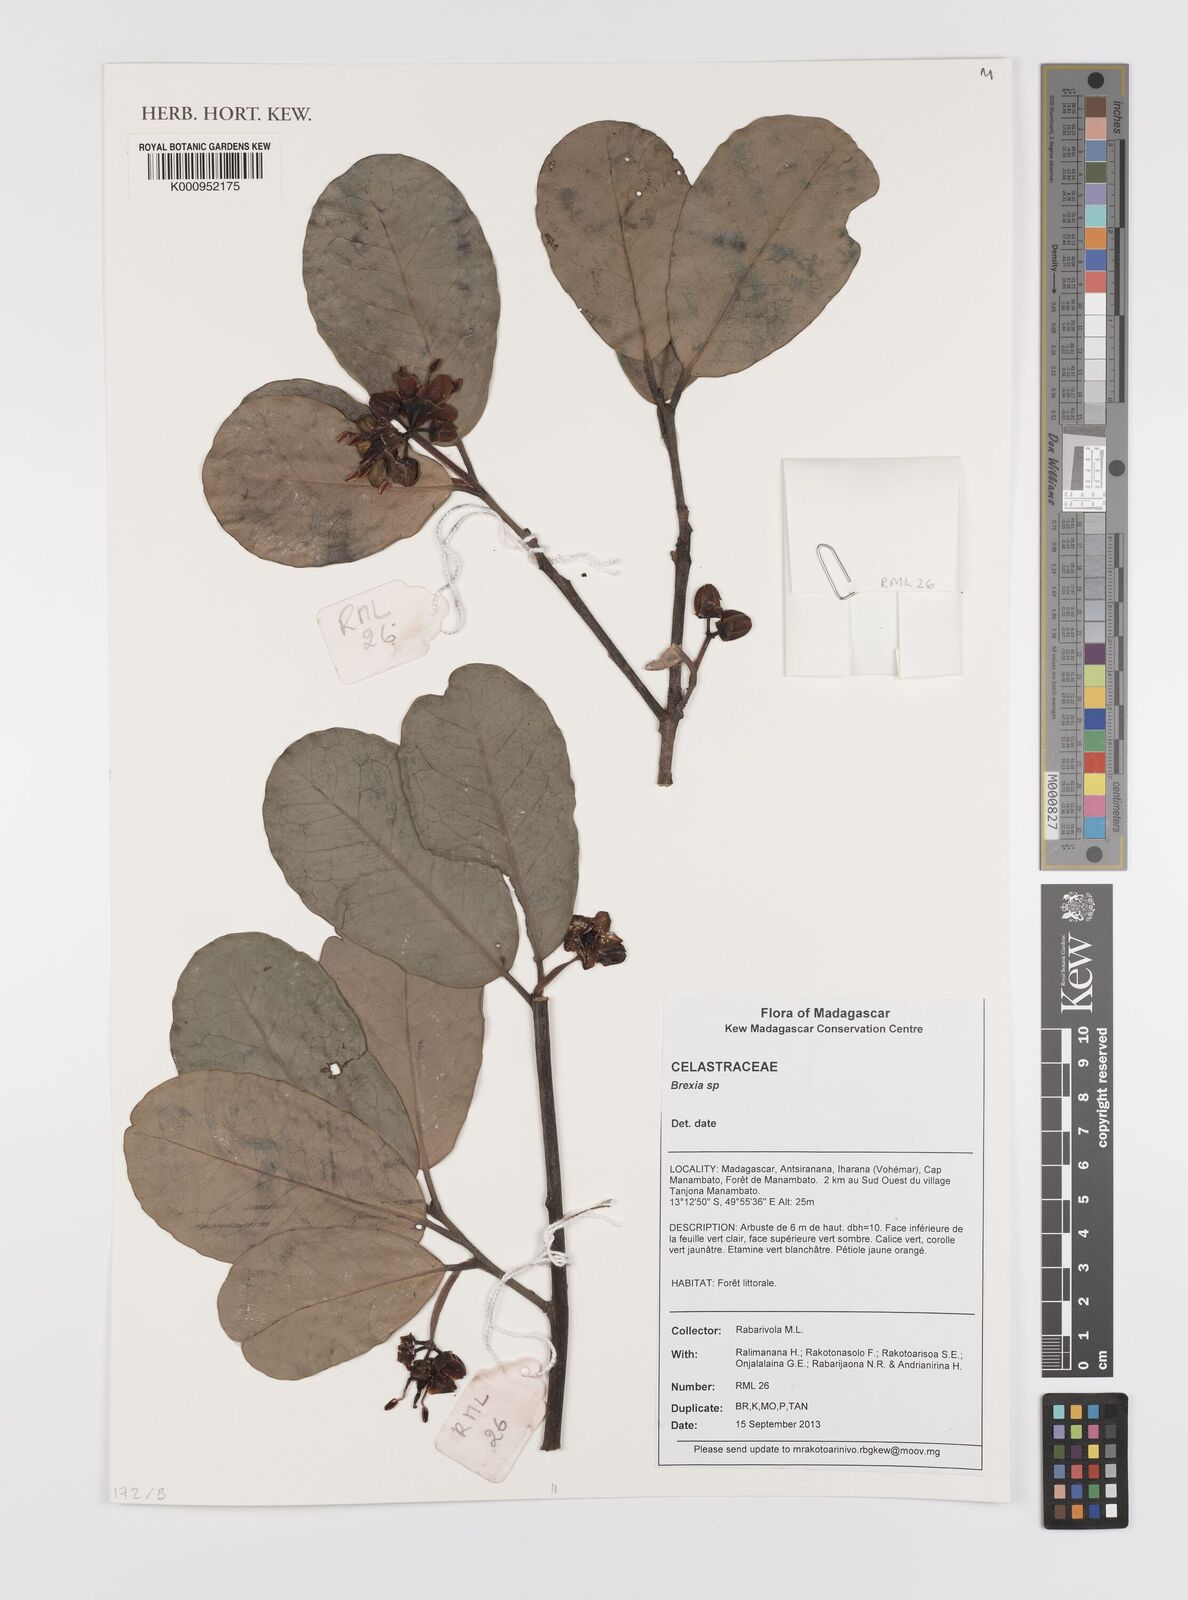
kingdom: Plantae
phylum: Tracheophyta
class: Magnoliopsida
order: Celastrales
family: Celastraceae
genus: Brexia
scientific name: Brexia
